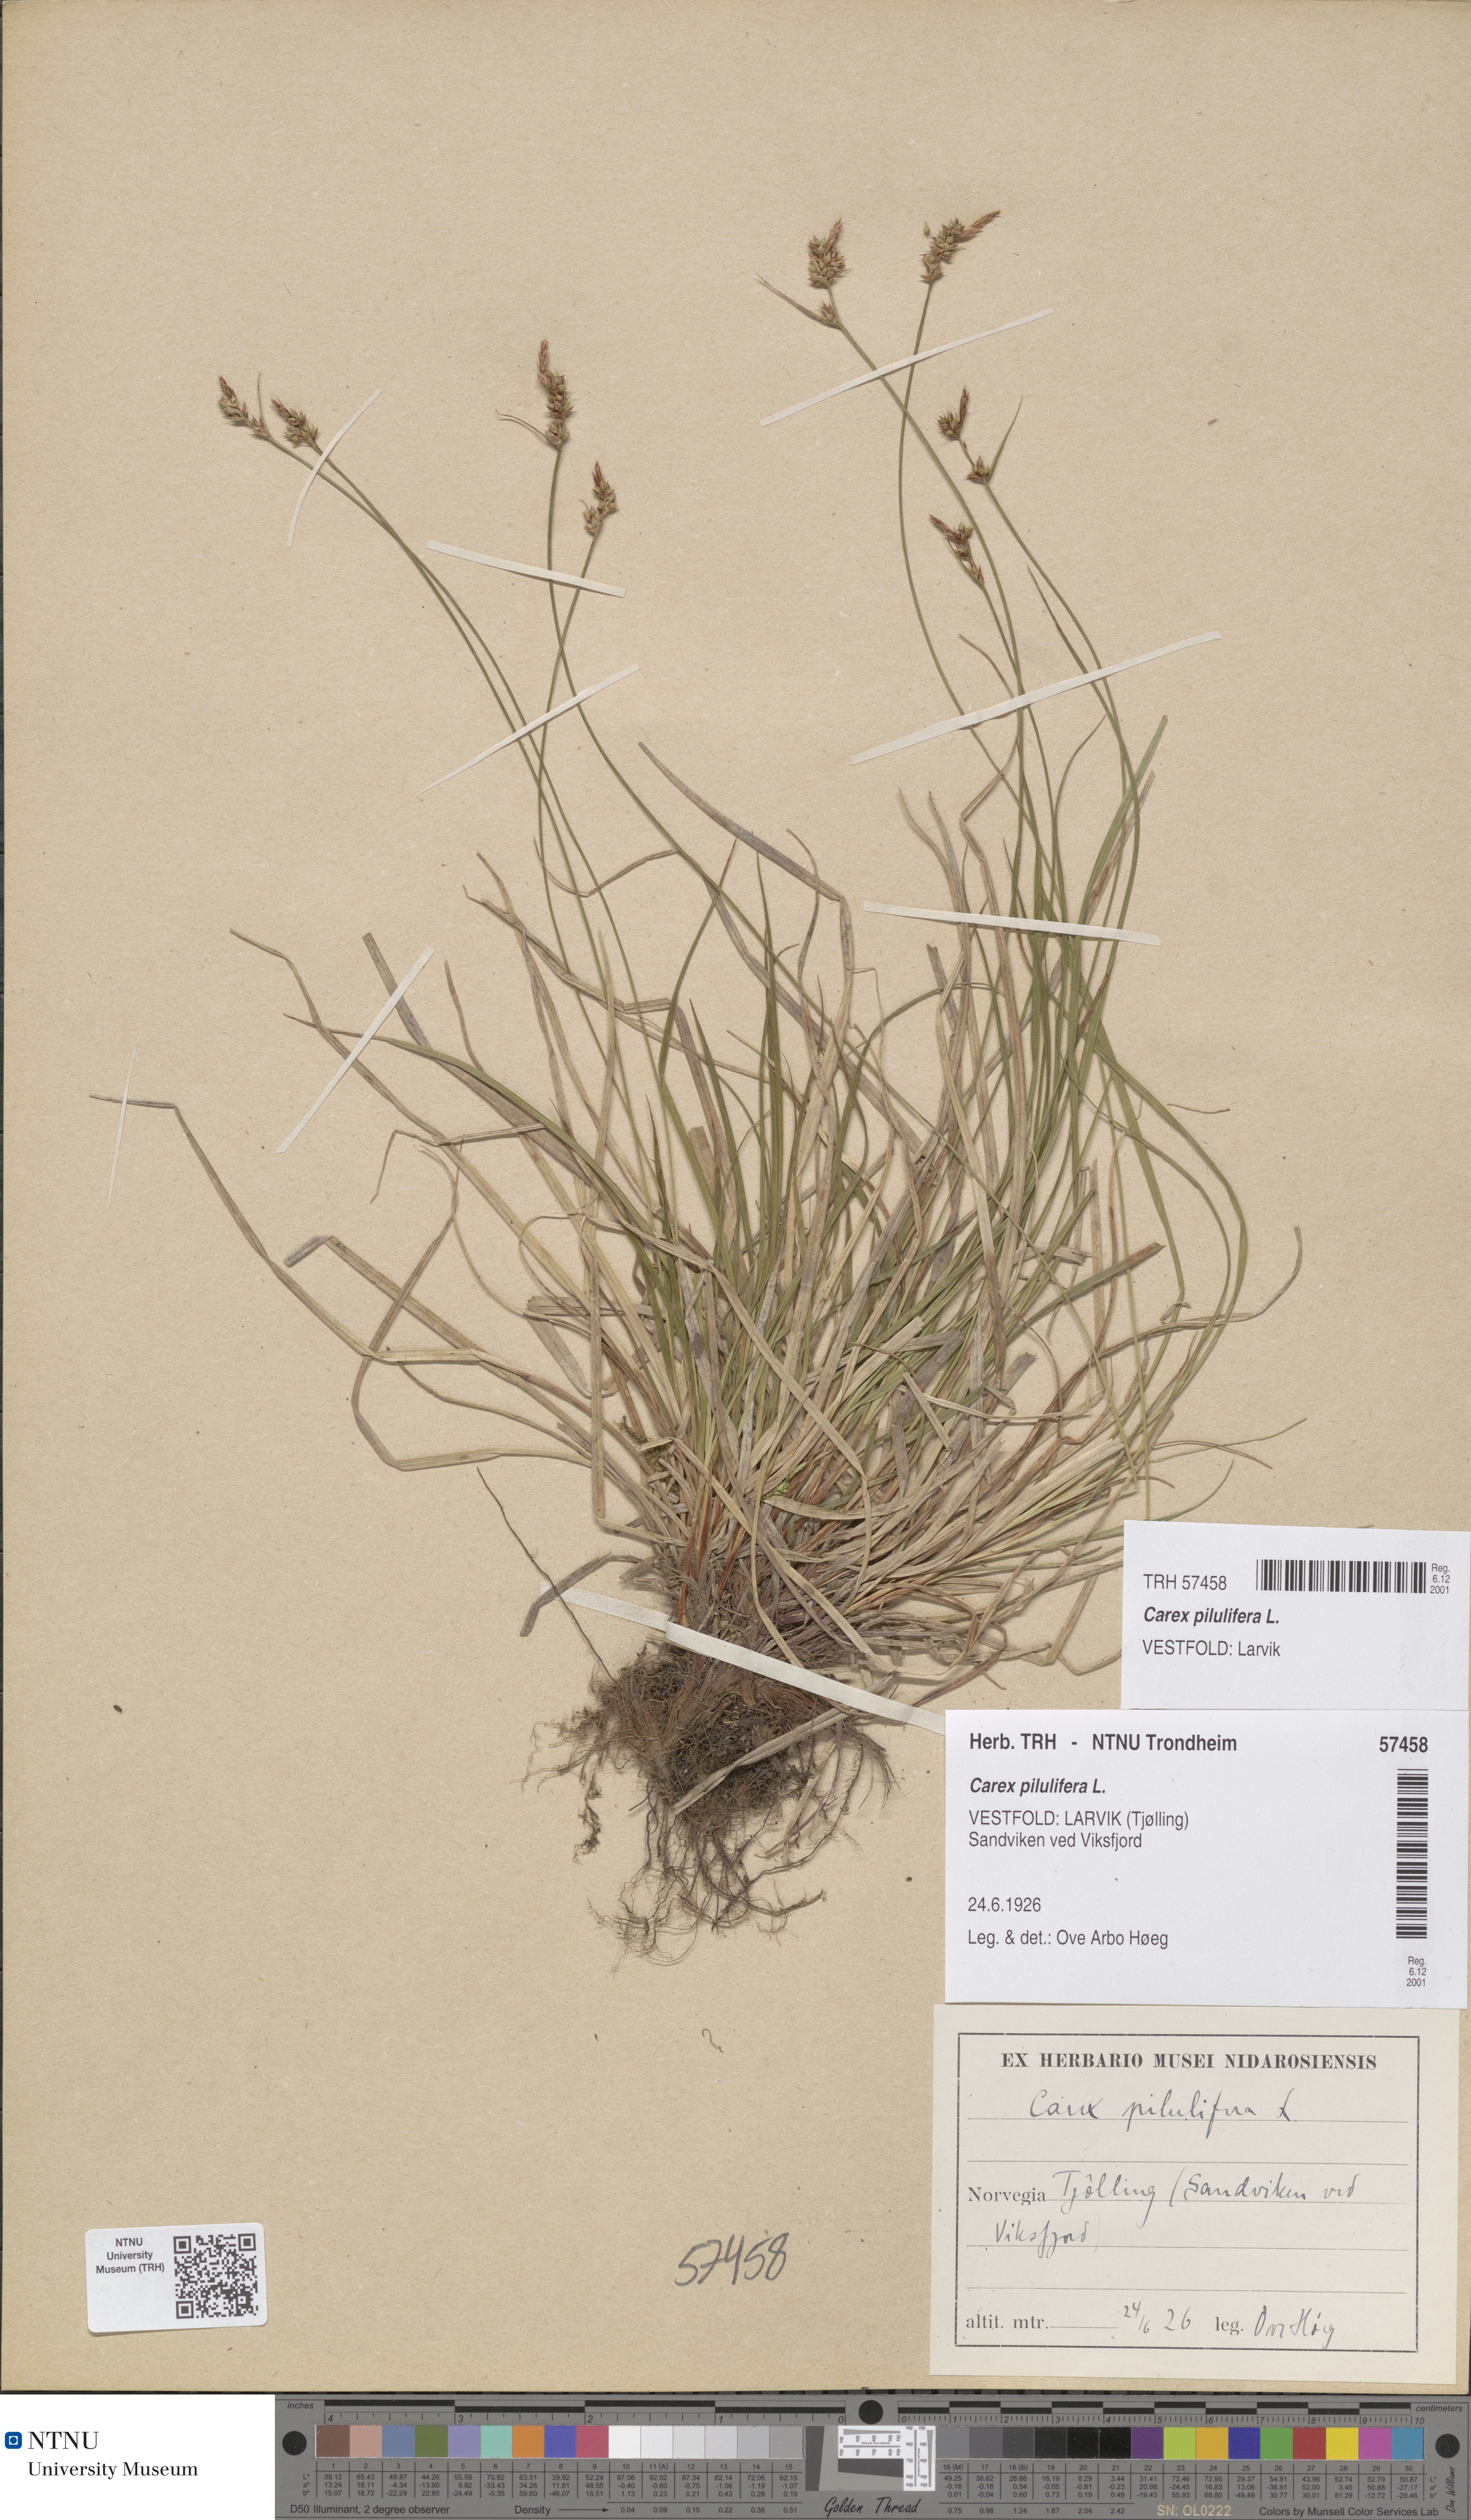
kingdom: Plantae
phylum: Tracheophyta
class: Liliopsida
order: Poales
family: Cyperaceae
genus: Carex
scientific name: Carex pilulifera
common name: Pill sedge
